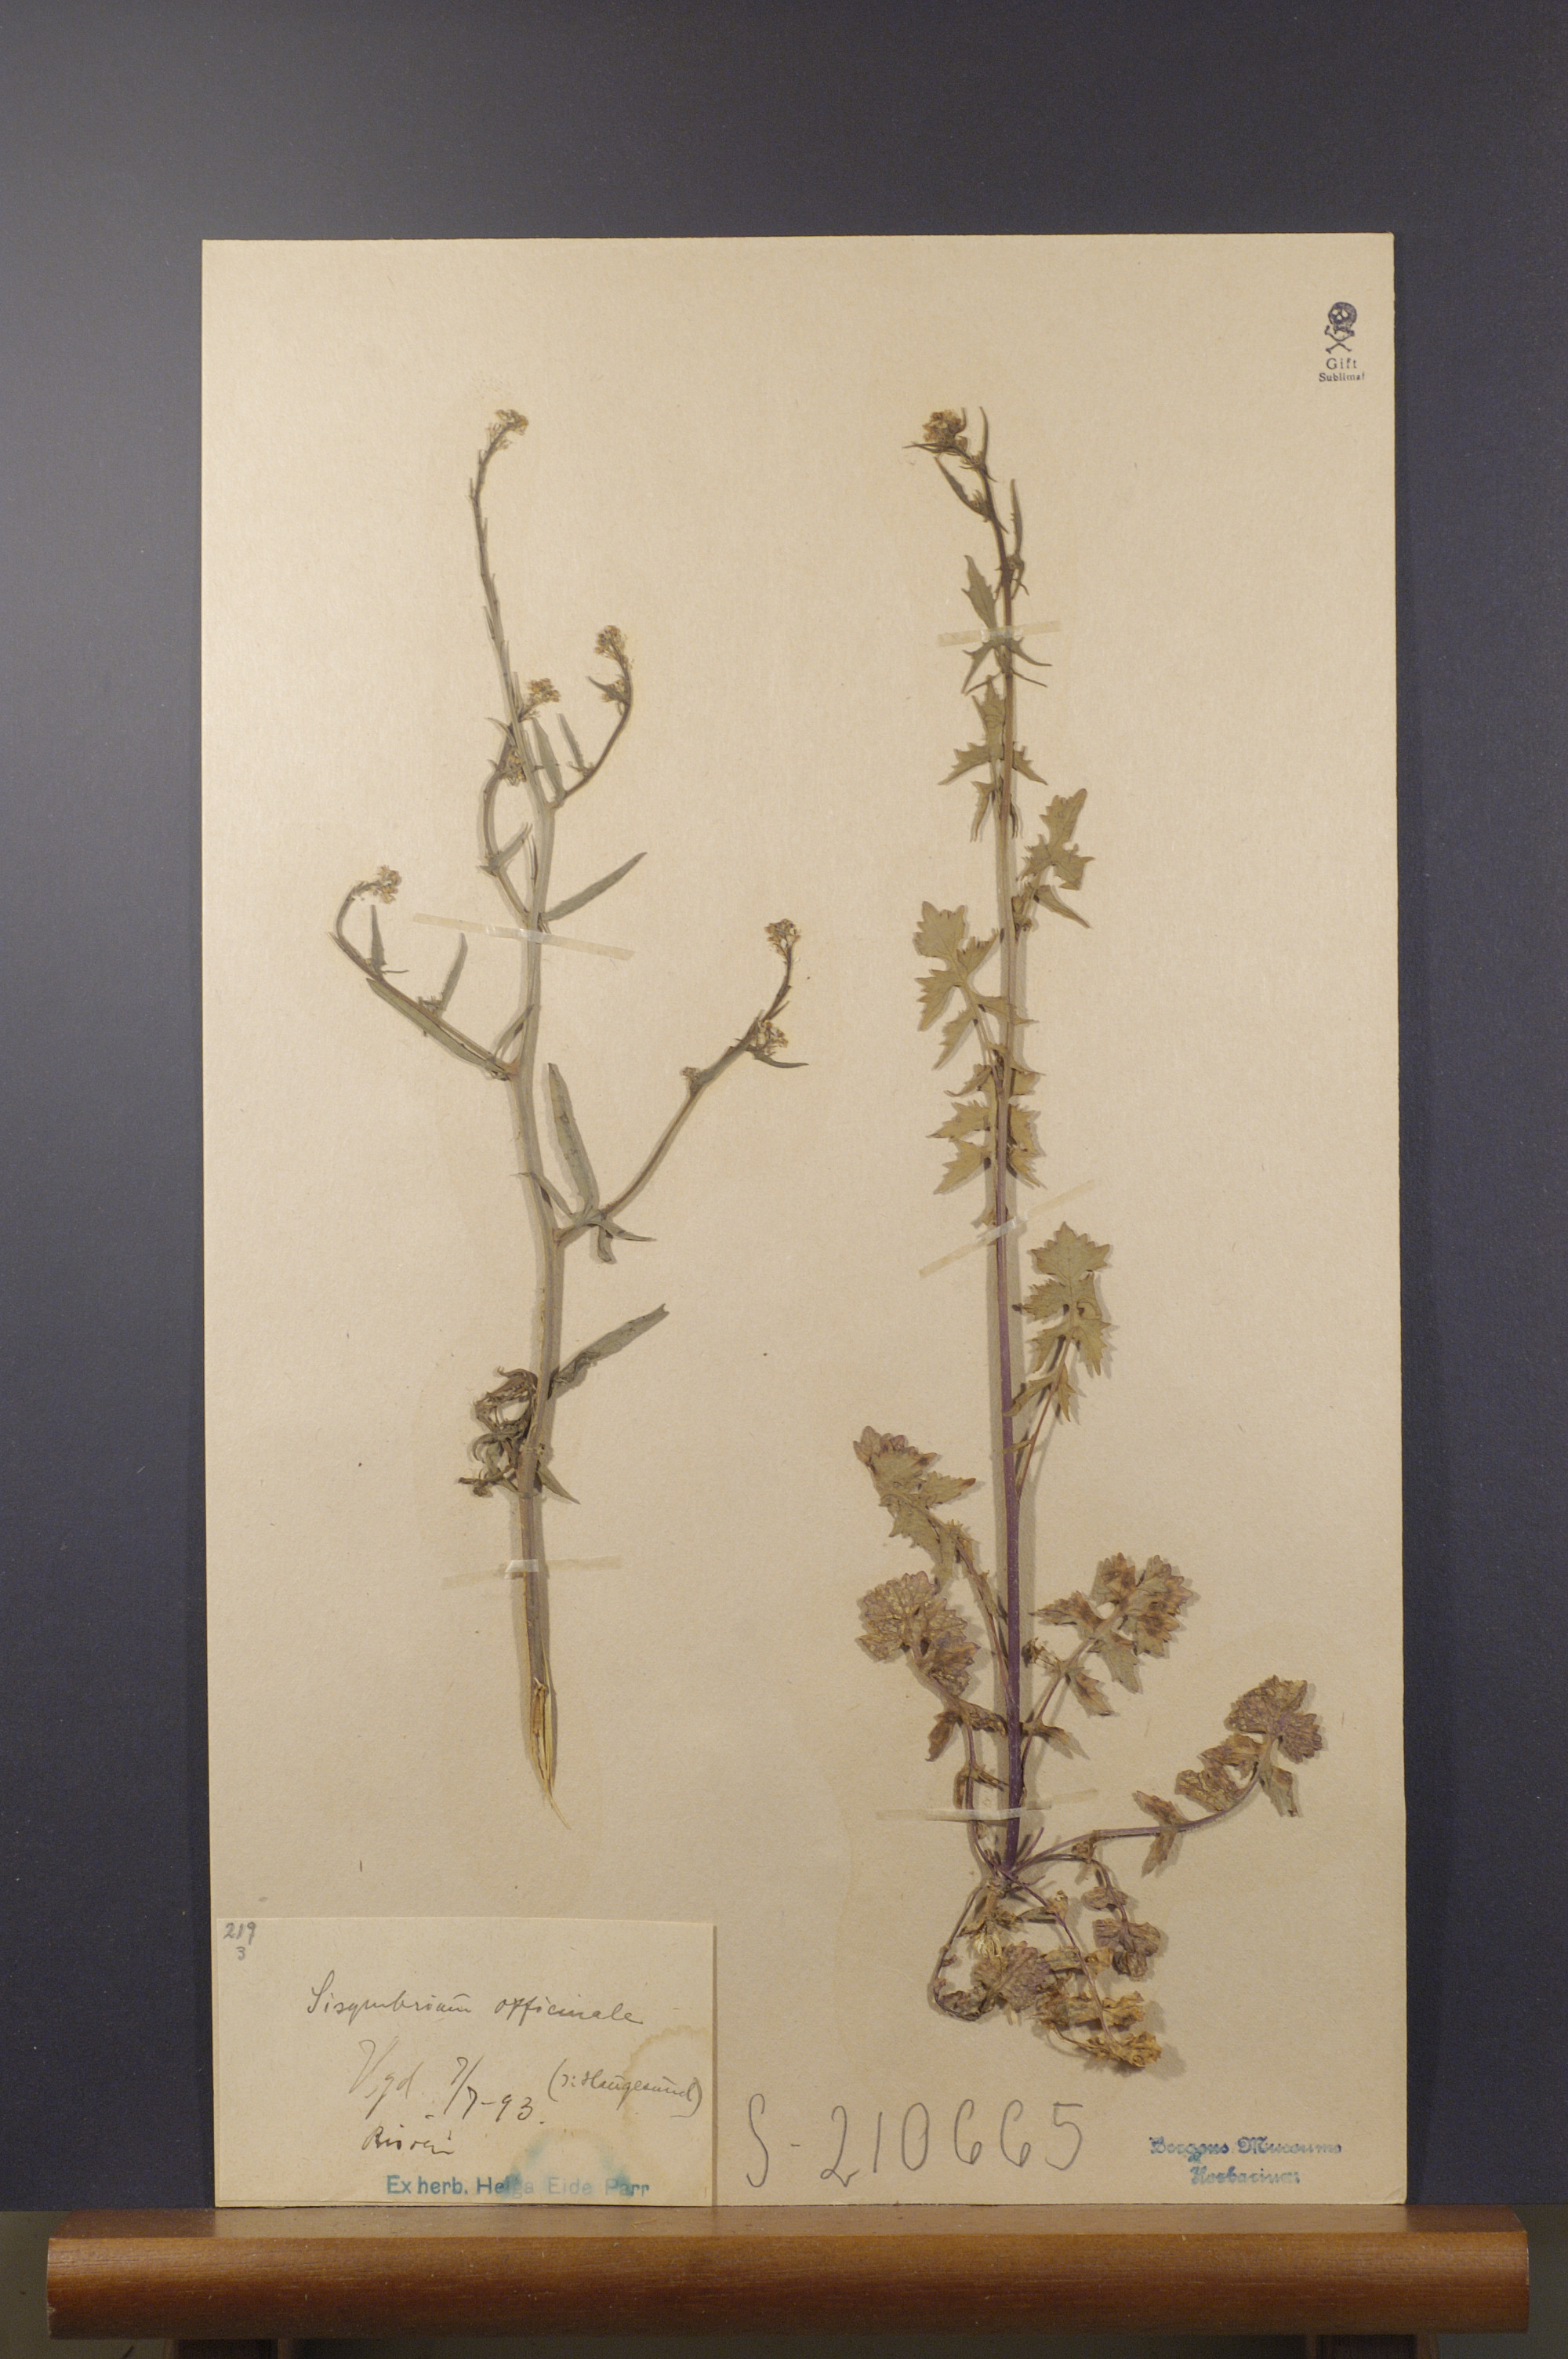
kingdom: Plantae
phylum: Tracheophyta
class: Magnoliopsida
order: Brassicales
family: Brassicaceae
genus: Sisymbrium
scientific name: Sisymbrium officinale
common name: Hedge mustard
